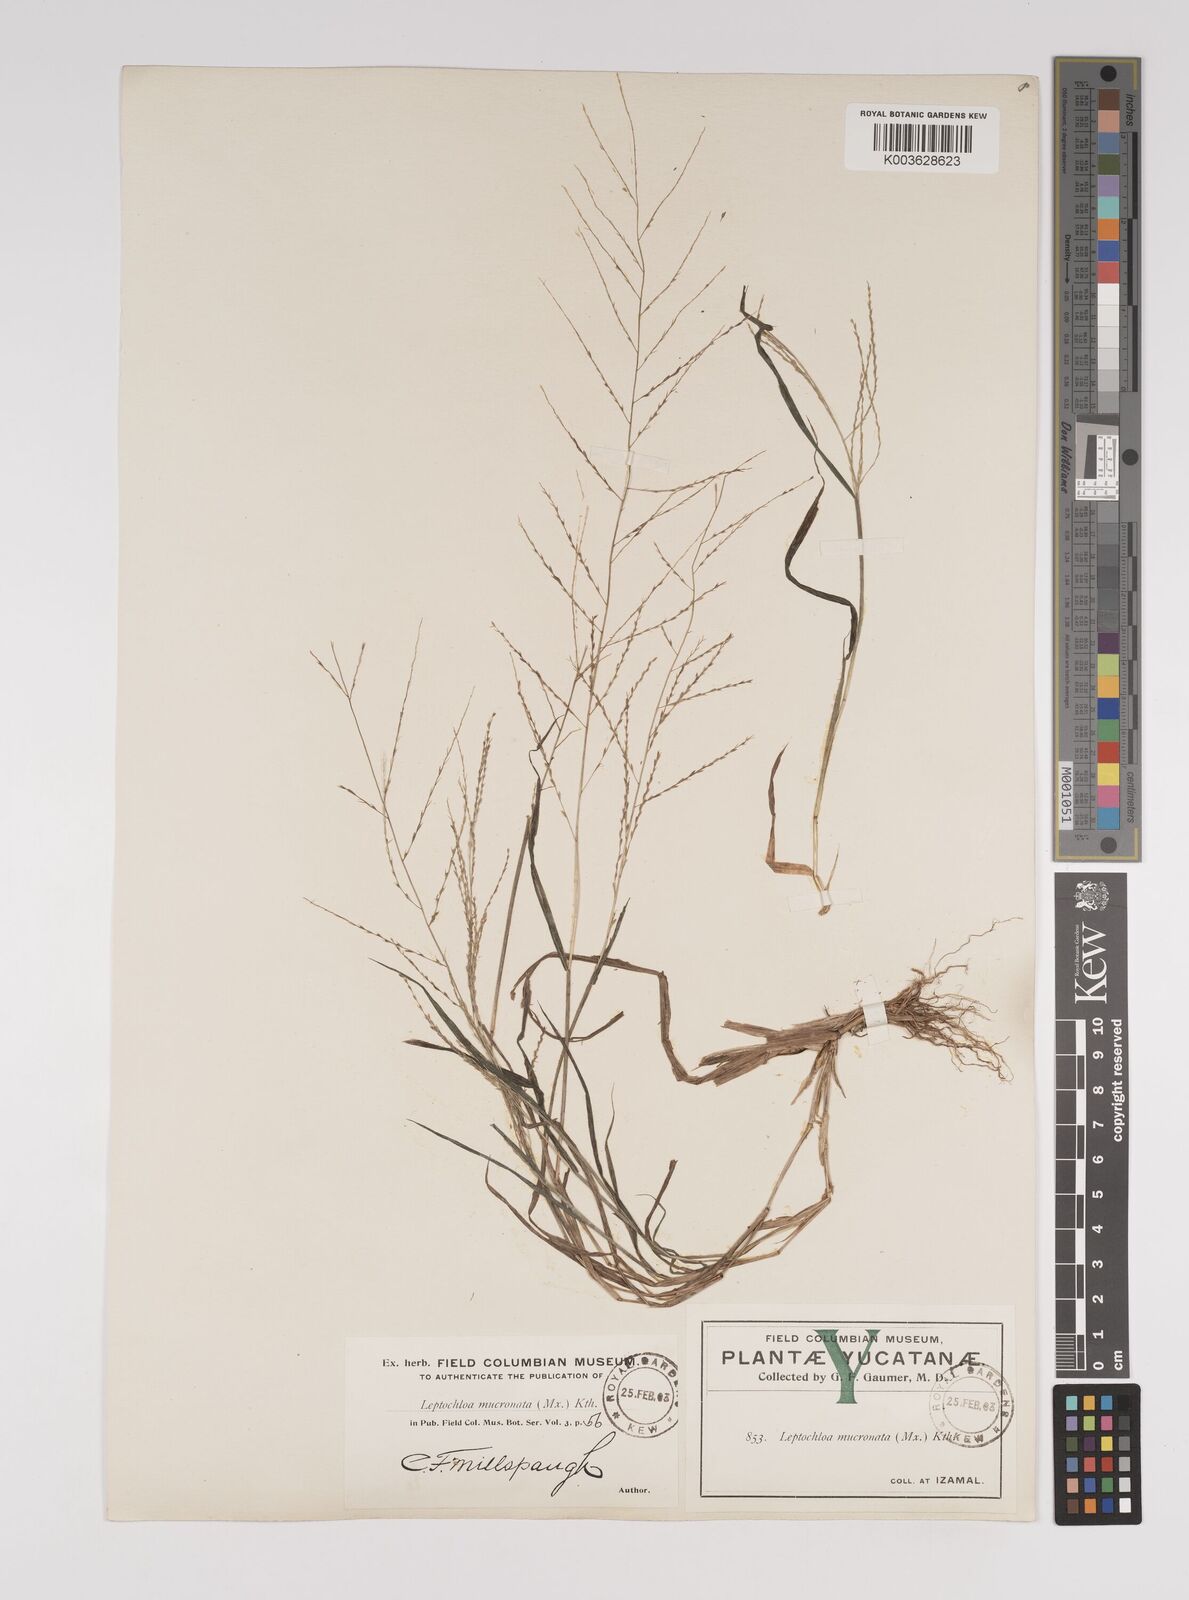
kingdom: Plantae
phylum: Tracheophyta
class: Liliopsida
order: Poales
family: Poaceae
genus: Leptochloa
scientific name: Leptochloa panicea
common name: Mucronate sprangletop
